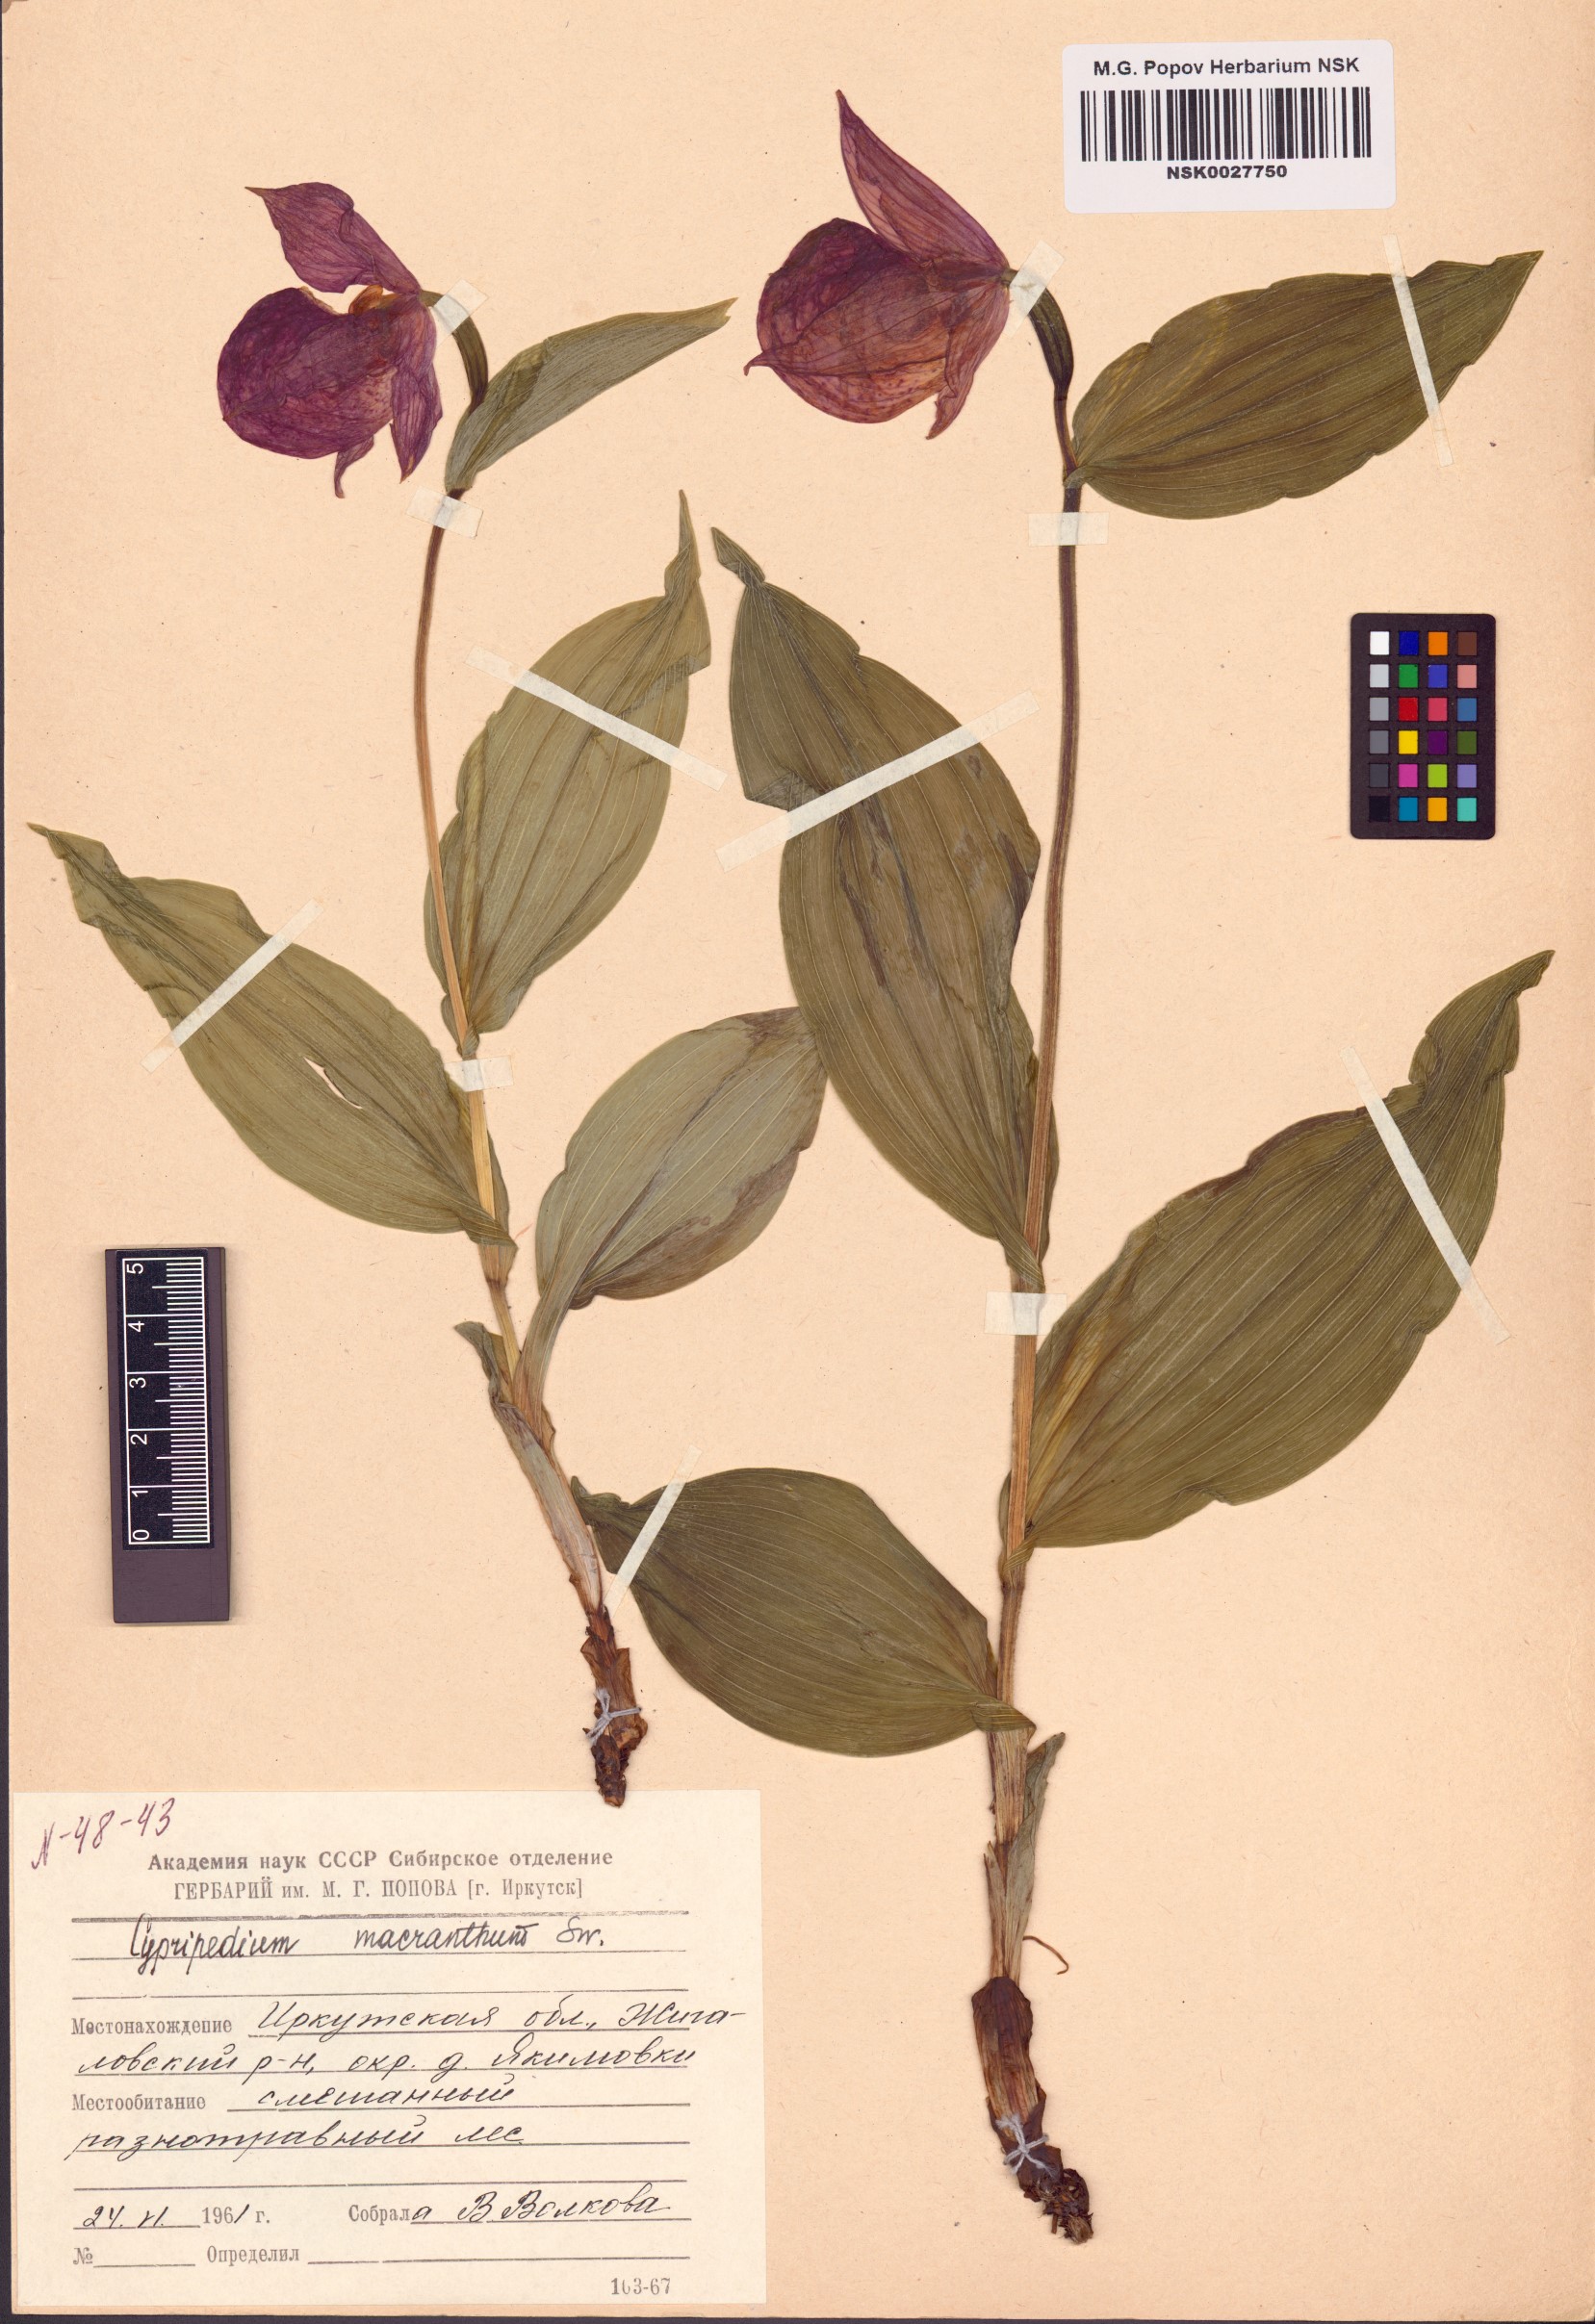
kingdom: Plantae
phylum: Tracheophyta
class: Liliopsida
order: Asparagales
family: Orchidaceae
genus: Cypripedium
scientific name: Cypripedium macranthos
